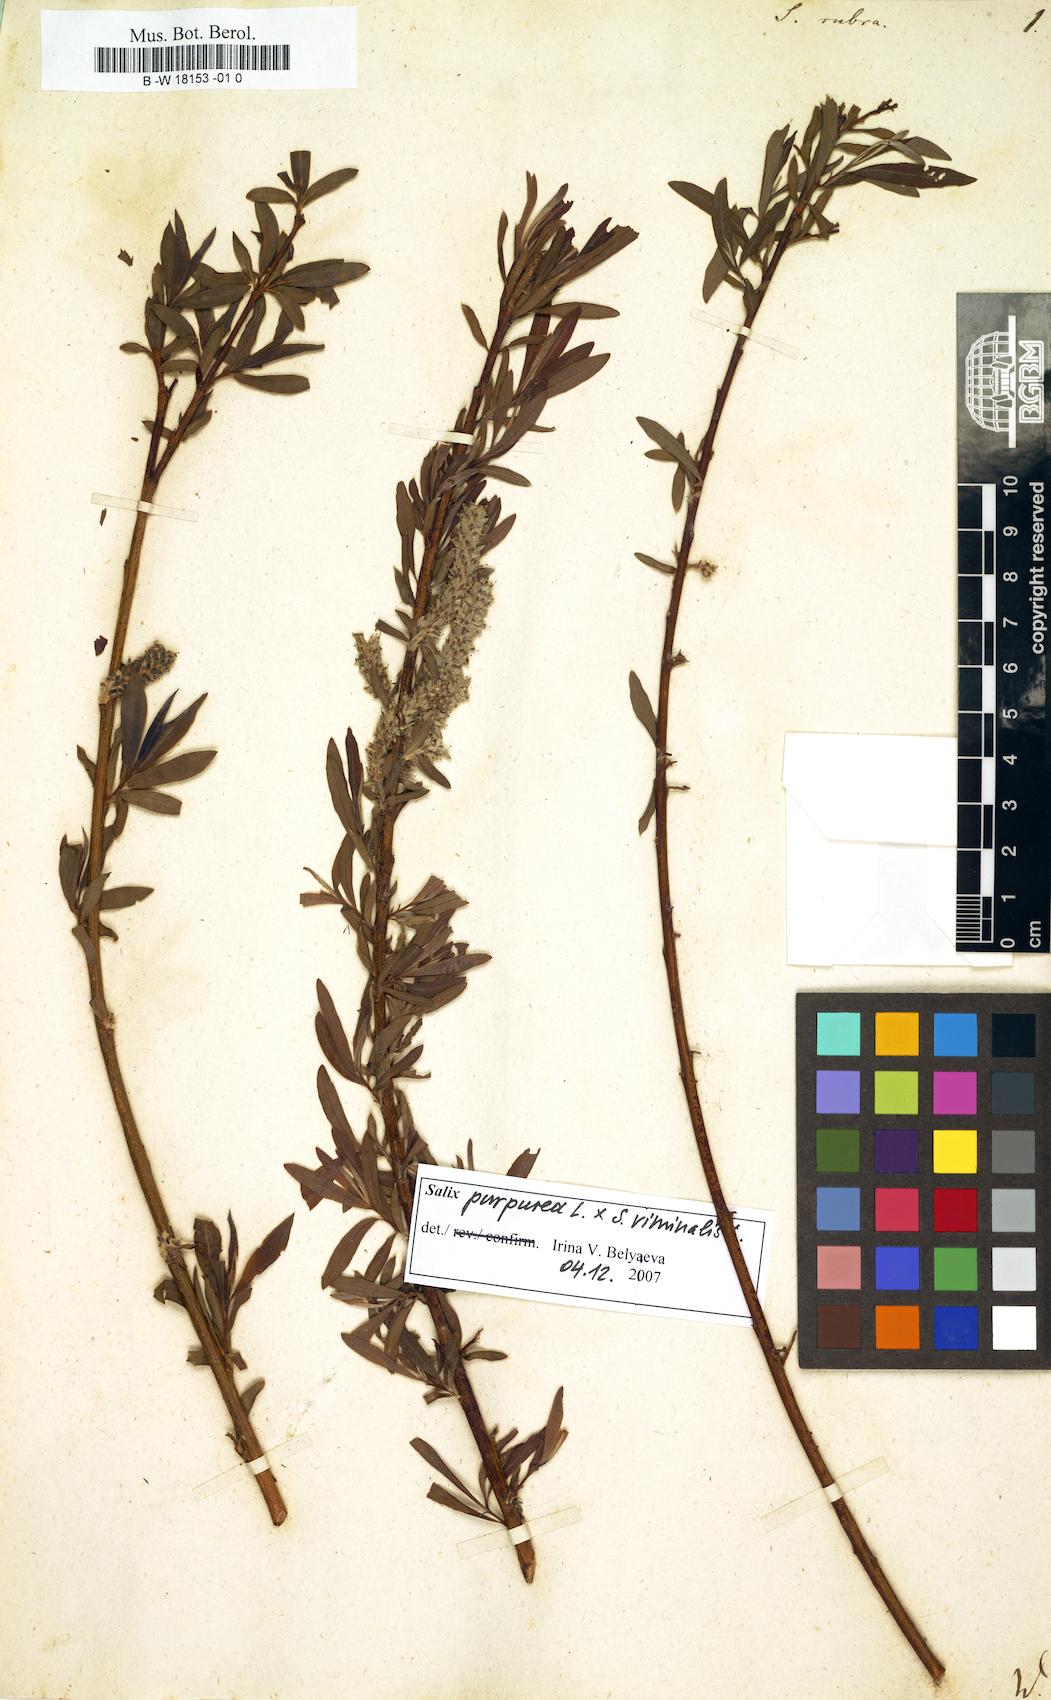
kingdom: Plantae
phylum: Tracheophyta
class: Magnoliopsida
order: Malpighiales
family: Salicaceae
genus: Salix
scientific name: Salix rubra
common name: Green-leaf willow
